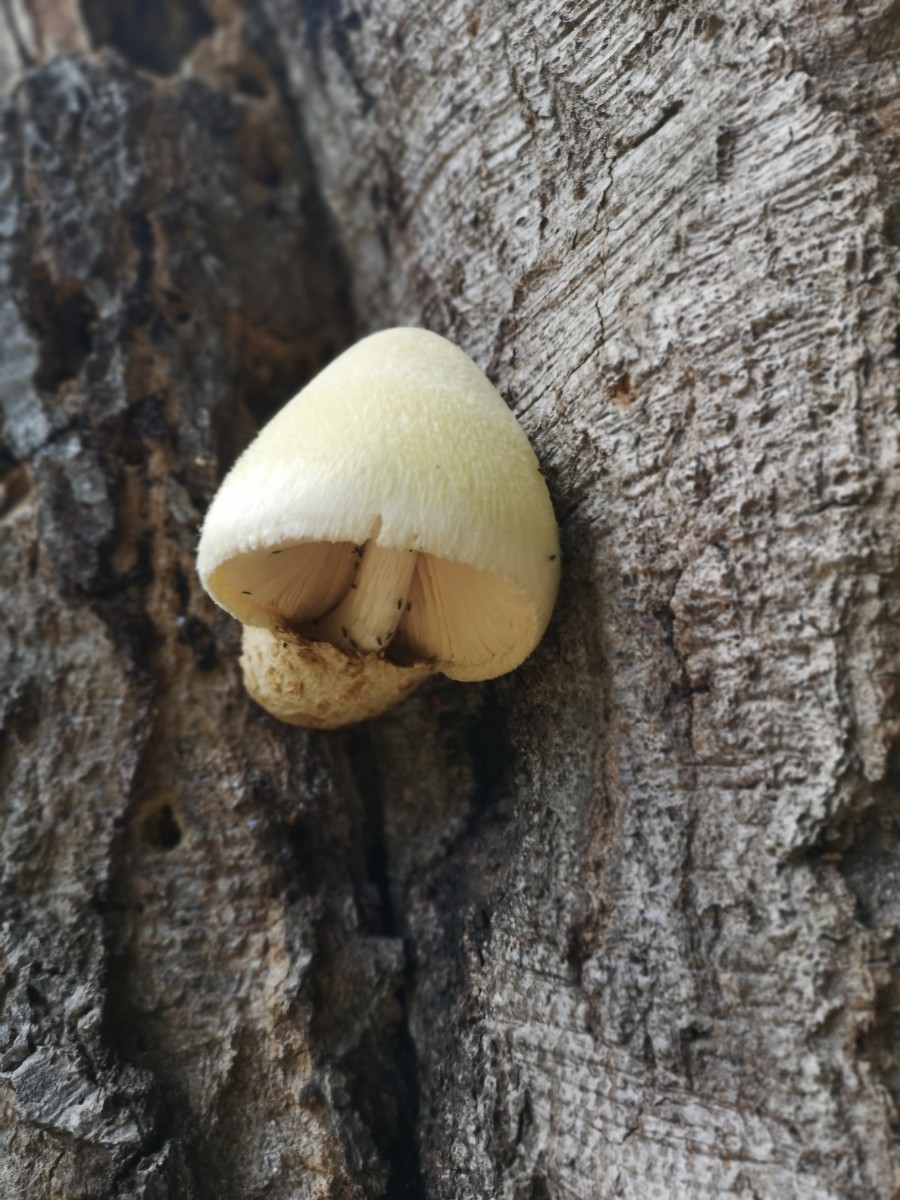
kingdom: Fungi
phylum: Basidiomycota
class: Agaricomycetes
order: Agaricales
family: Pluteaceae
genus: Volvariella
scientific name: Volvariella bombycina
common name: silkehåret posesvamp
